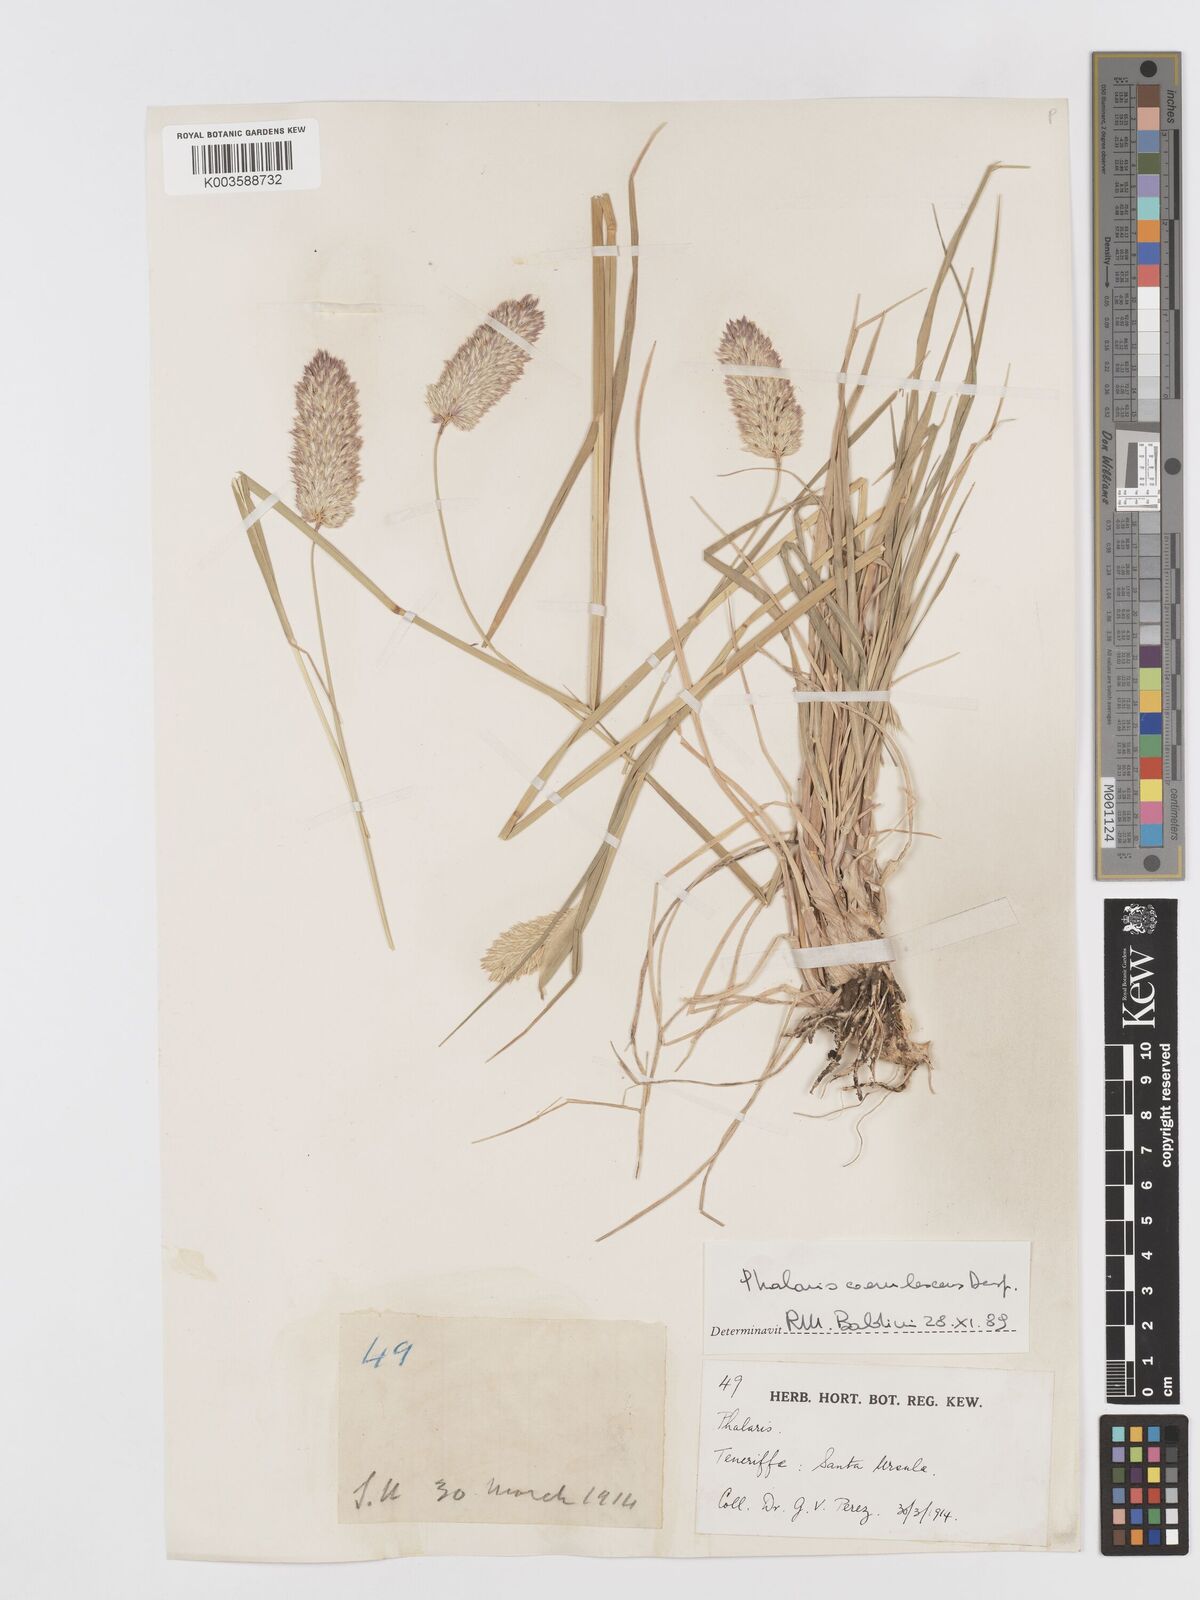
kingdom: Plantae
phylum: Tracheophyta
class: Liliopsida
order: Poales
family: Poaceae
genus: Phalaris
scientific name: Phalaris coerulescens
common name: Sunolgrass
